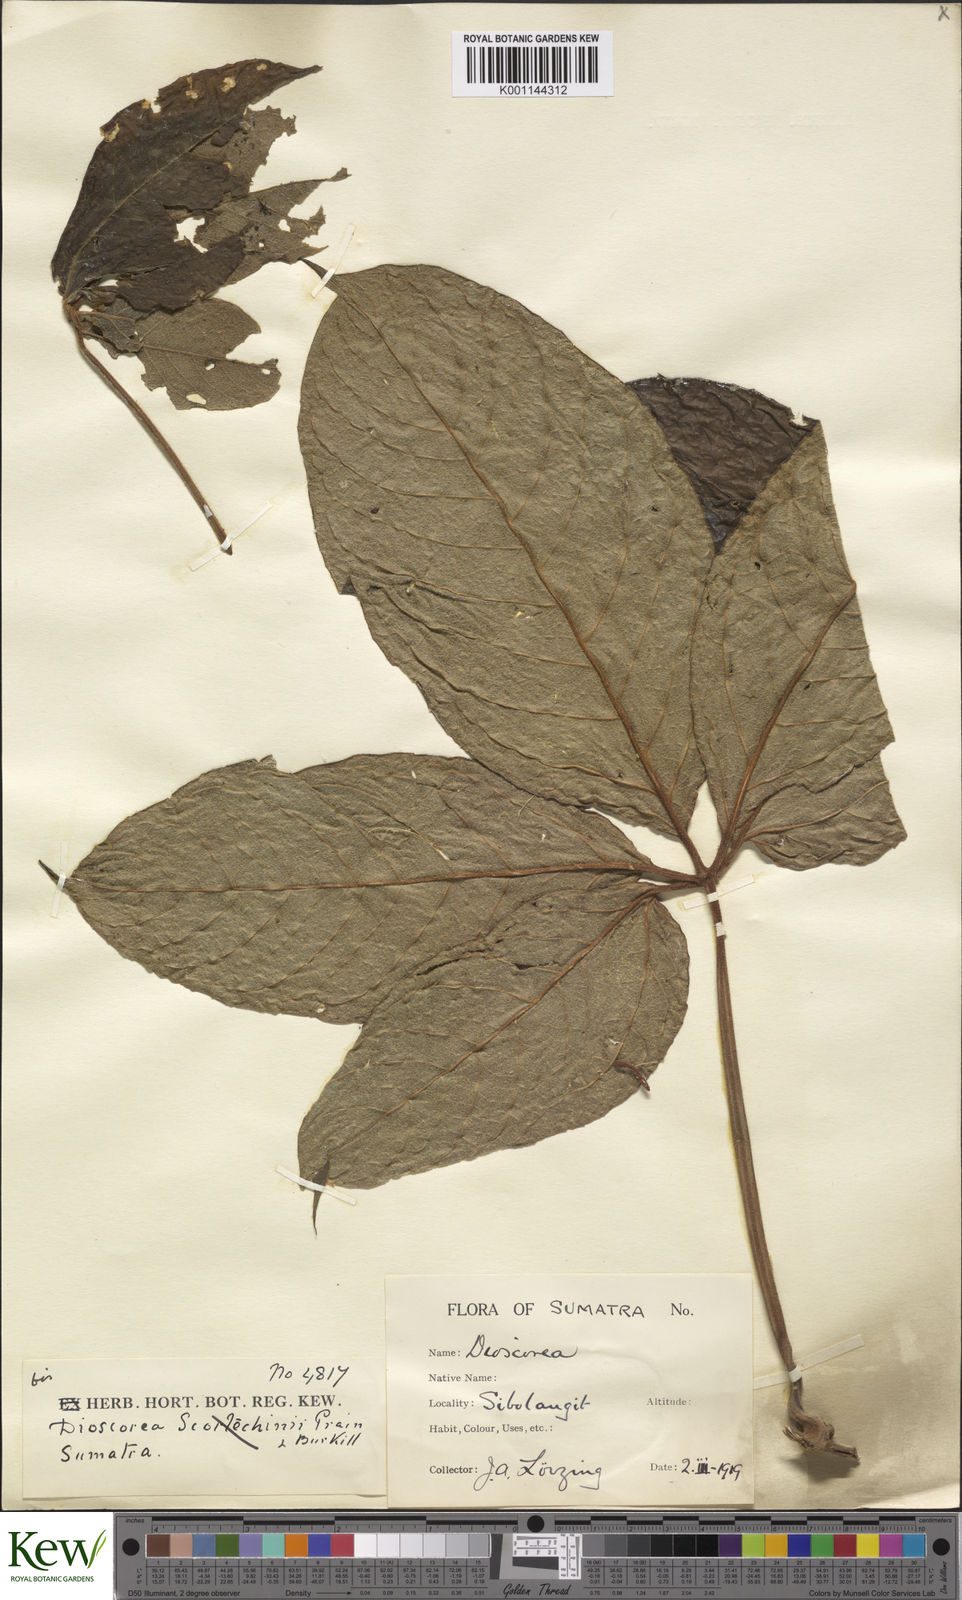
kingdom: Plantae
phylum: Tracheophyta
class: Liliopsida
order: Dioscoreales
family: Dioscoreaceae
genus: Dioscorea
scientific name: Dioscorea cumingii
